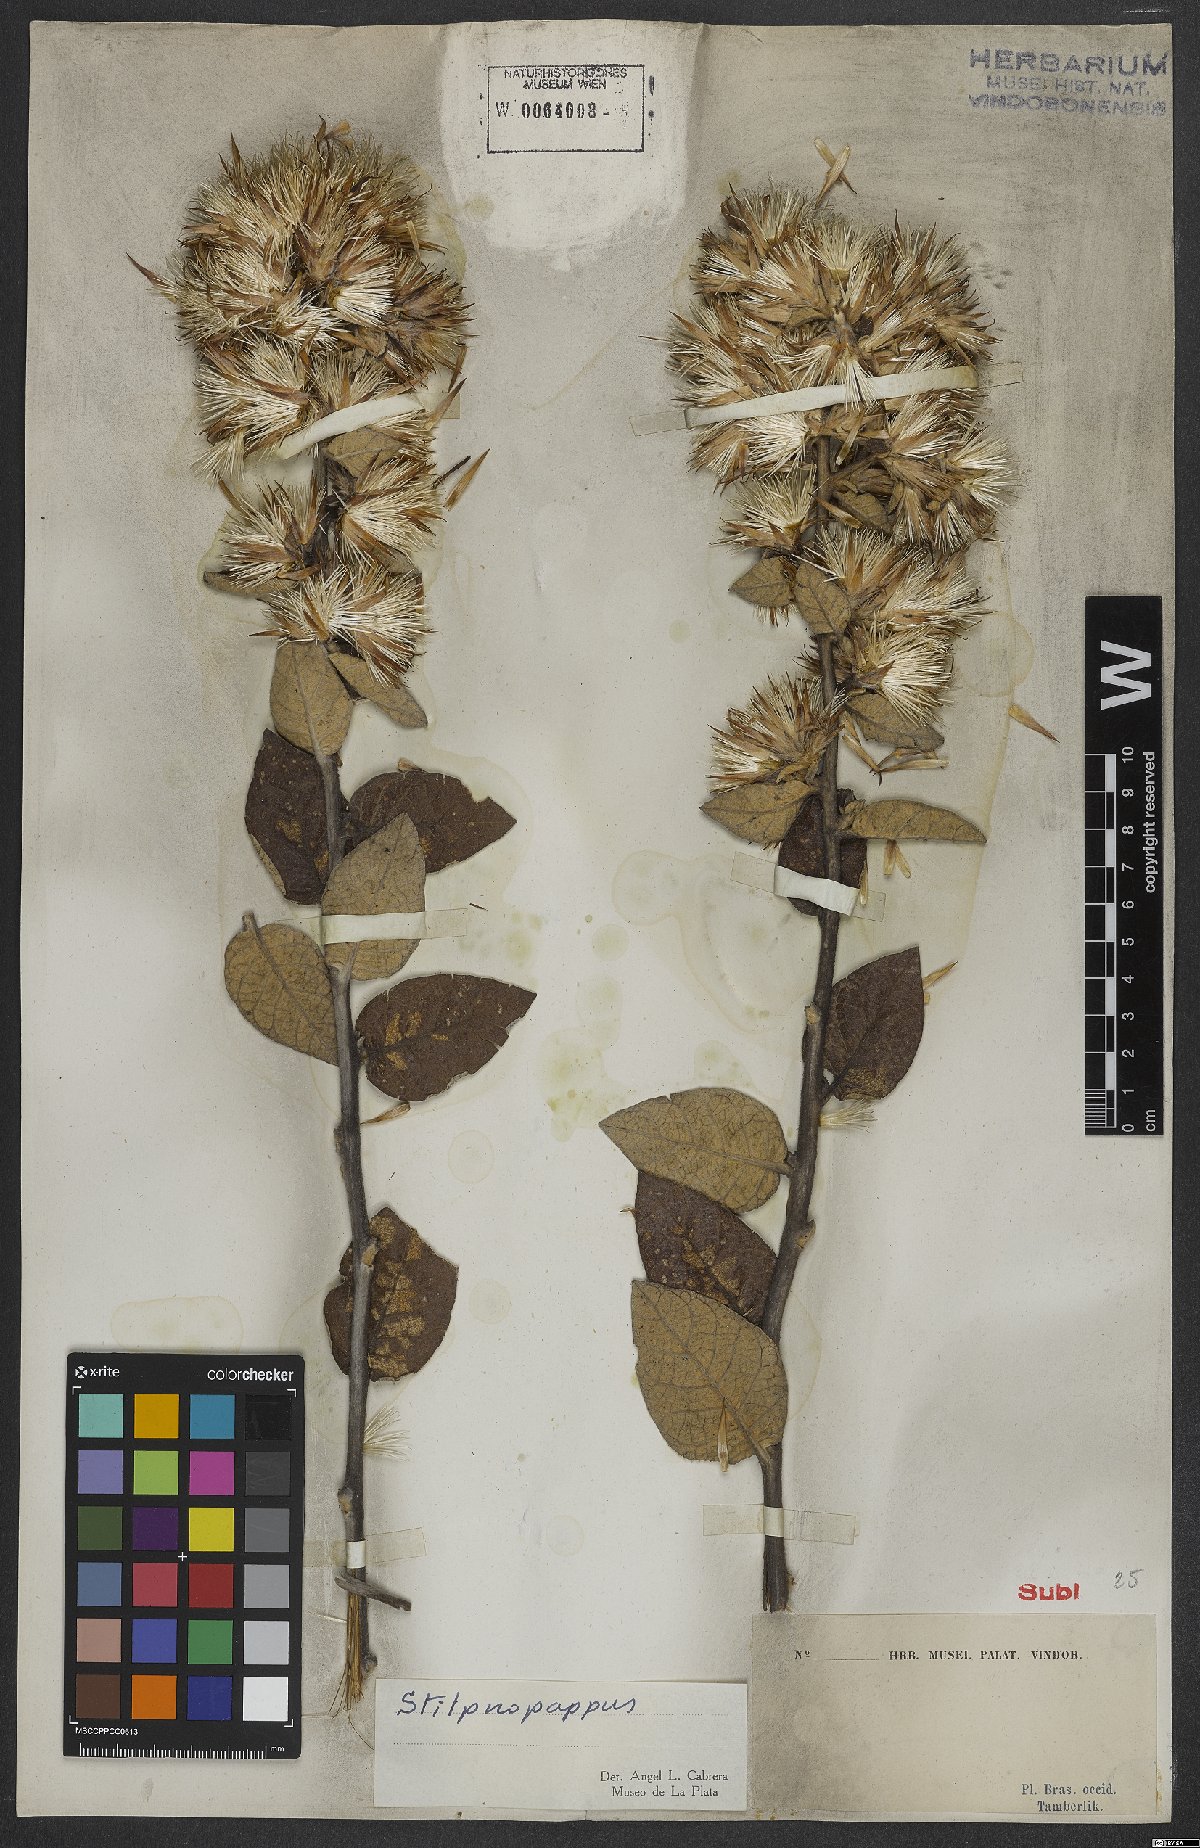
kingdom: Plantae
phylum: Tracheophyta
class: Magnoliopsida
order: Asterales
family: Asteraceae
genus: Stilpnopappus
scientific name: Stilpnopappus
